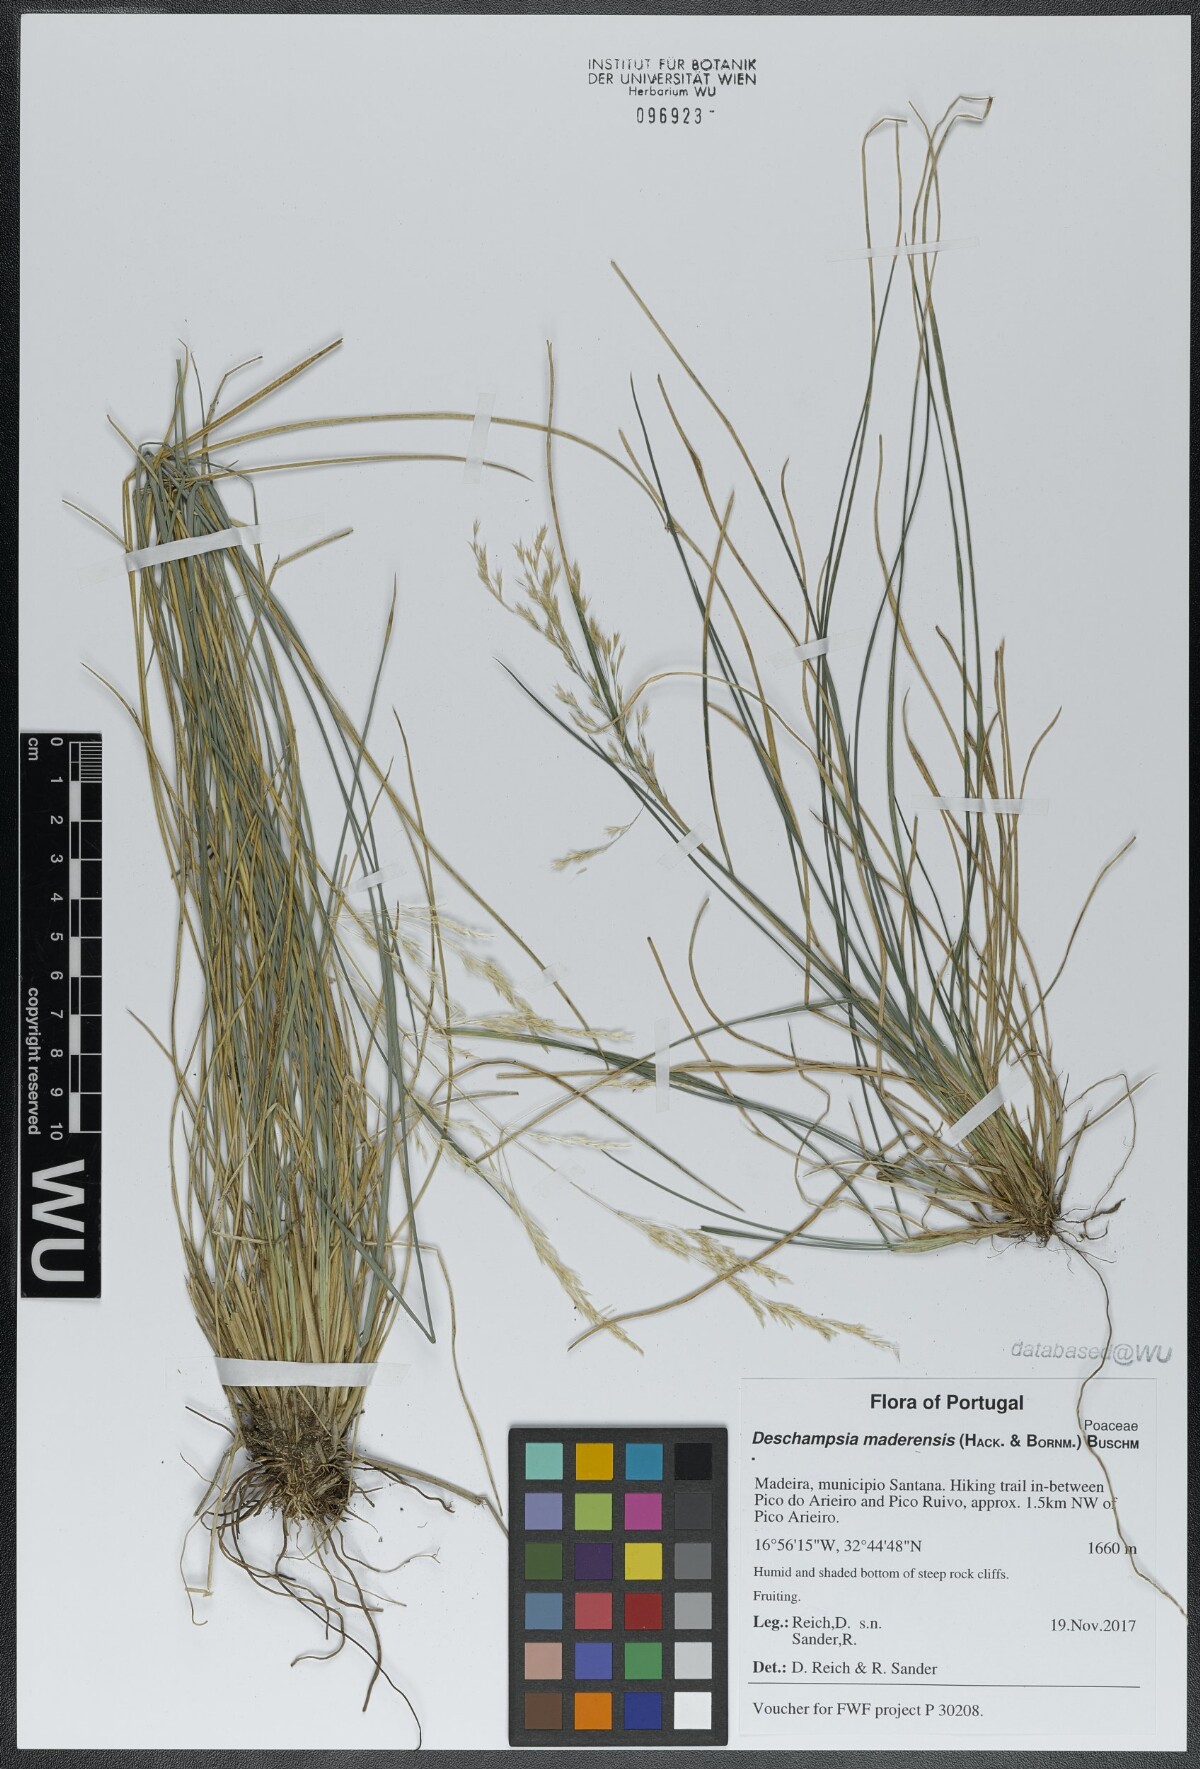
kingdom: Plantae
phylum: Tracheophyta
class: Liliopsida
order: Poales
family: Poaceae
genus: Deschampsia
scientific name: Deschampsia argentea
